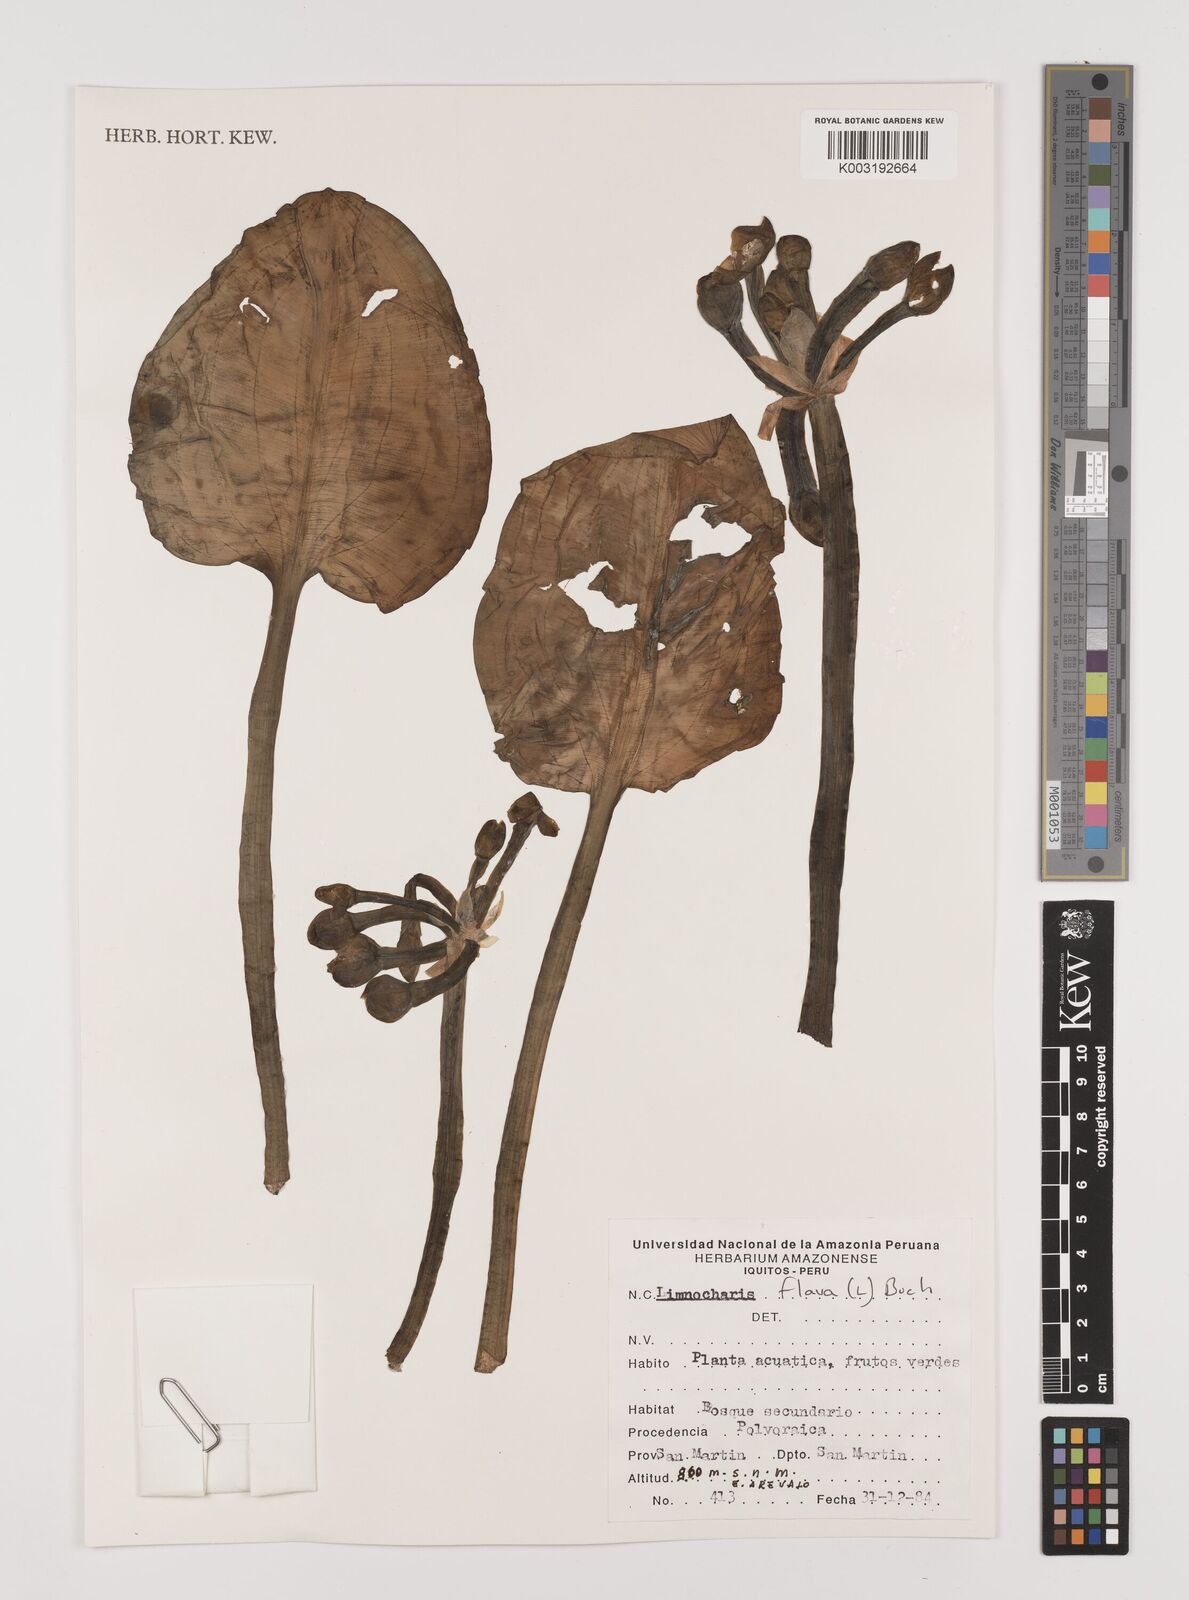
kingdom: Plantae
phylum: Tracheophyta
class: Liliopsida
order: Alismatales
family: Alismataceae
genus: Limnocharis
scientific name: Limnocharis
